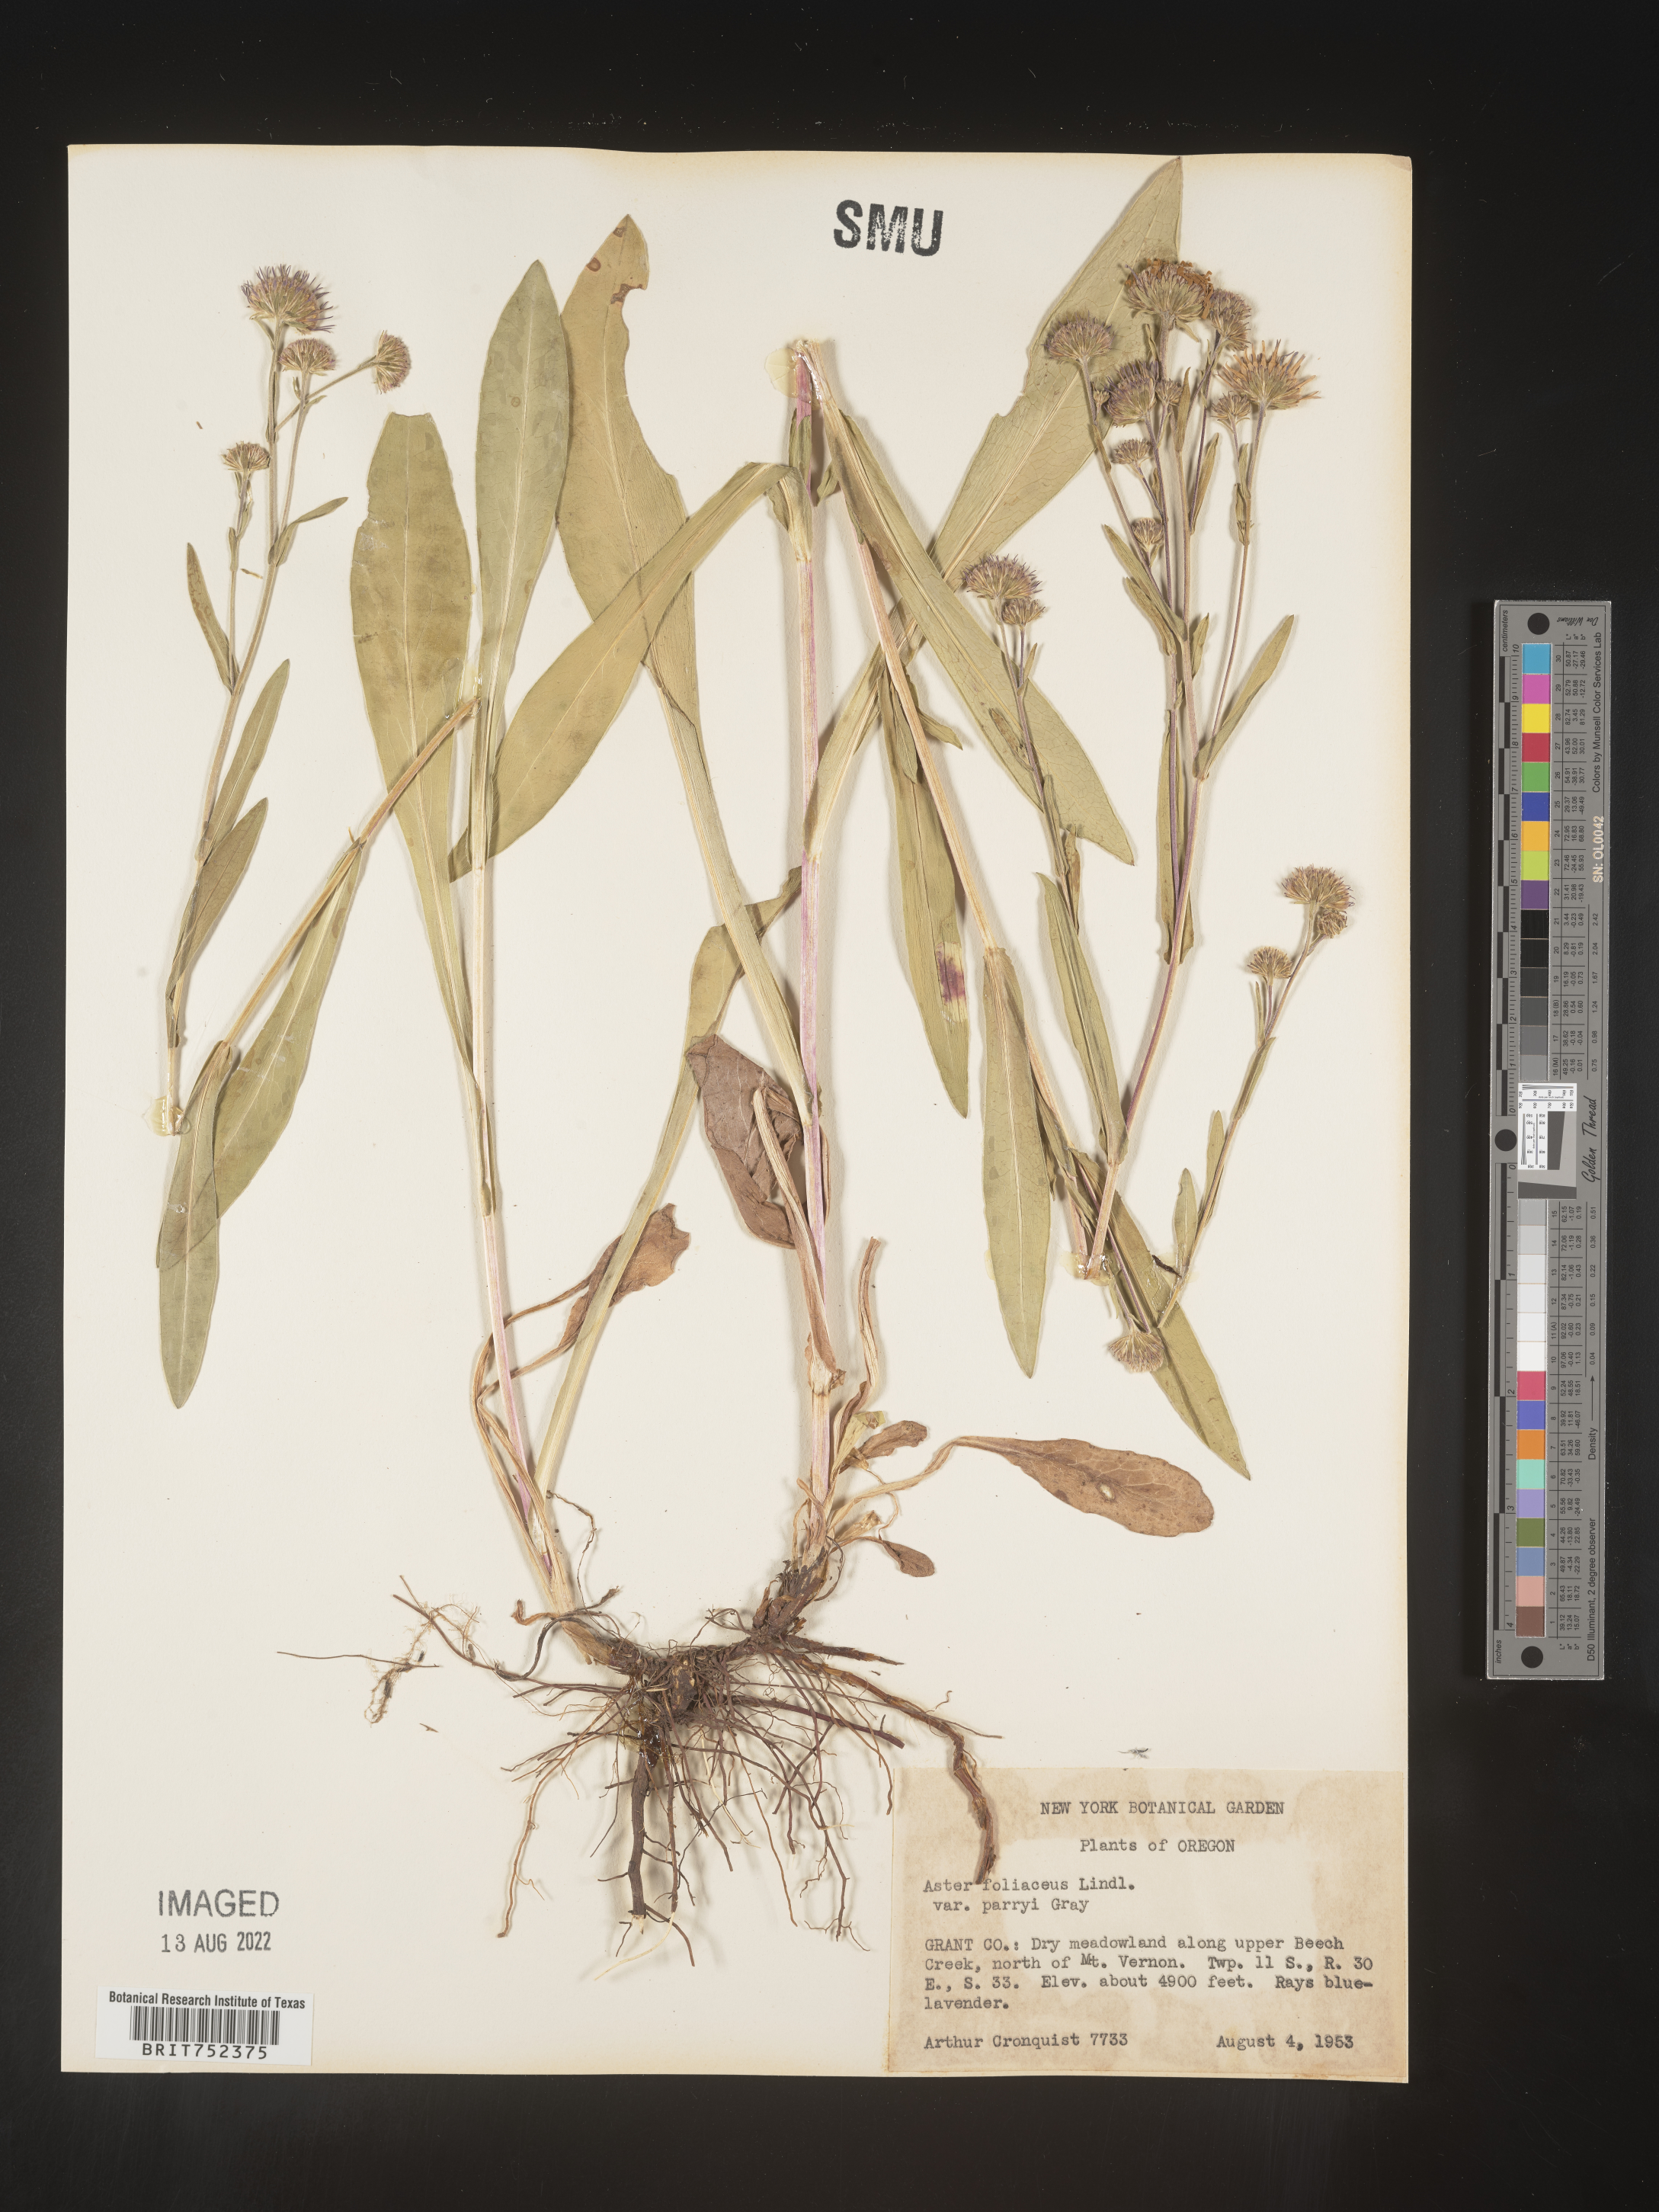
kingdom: Plantae
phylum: Tracheophyta
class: Magnoliopsida
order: Asterales
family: Asteraceae
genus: Symphyotrichum
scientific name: Symphyotrichum foliaceum
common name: Leafy aster
